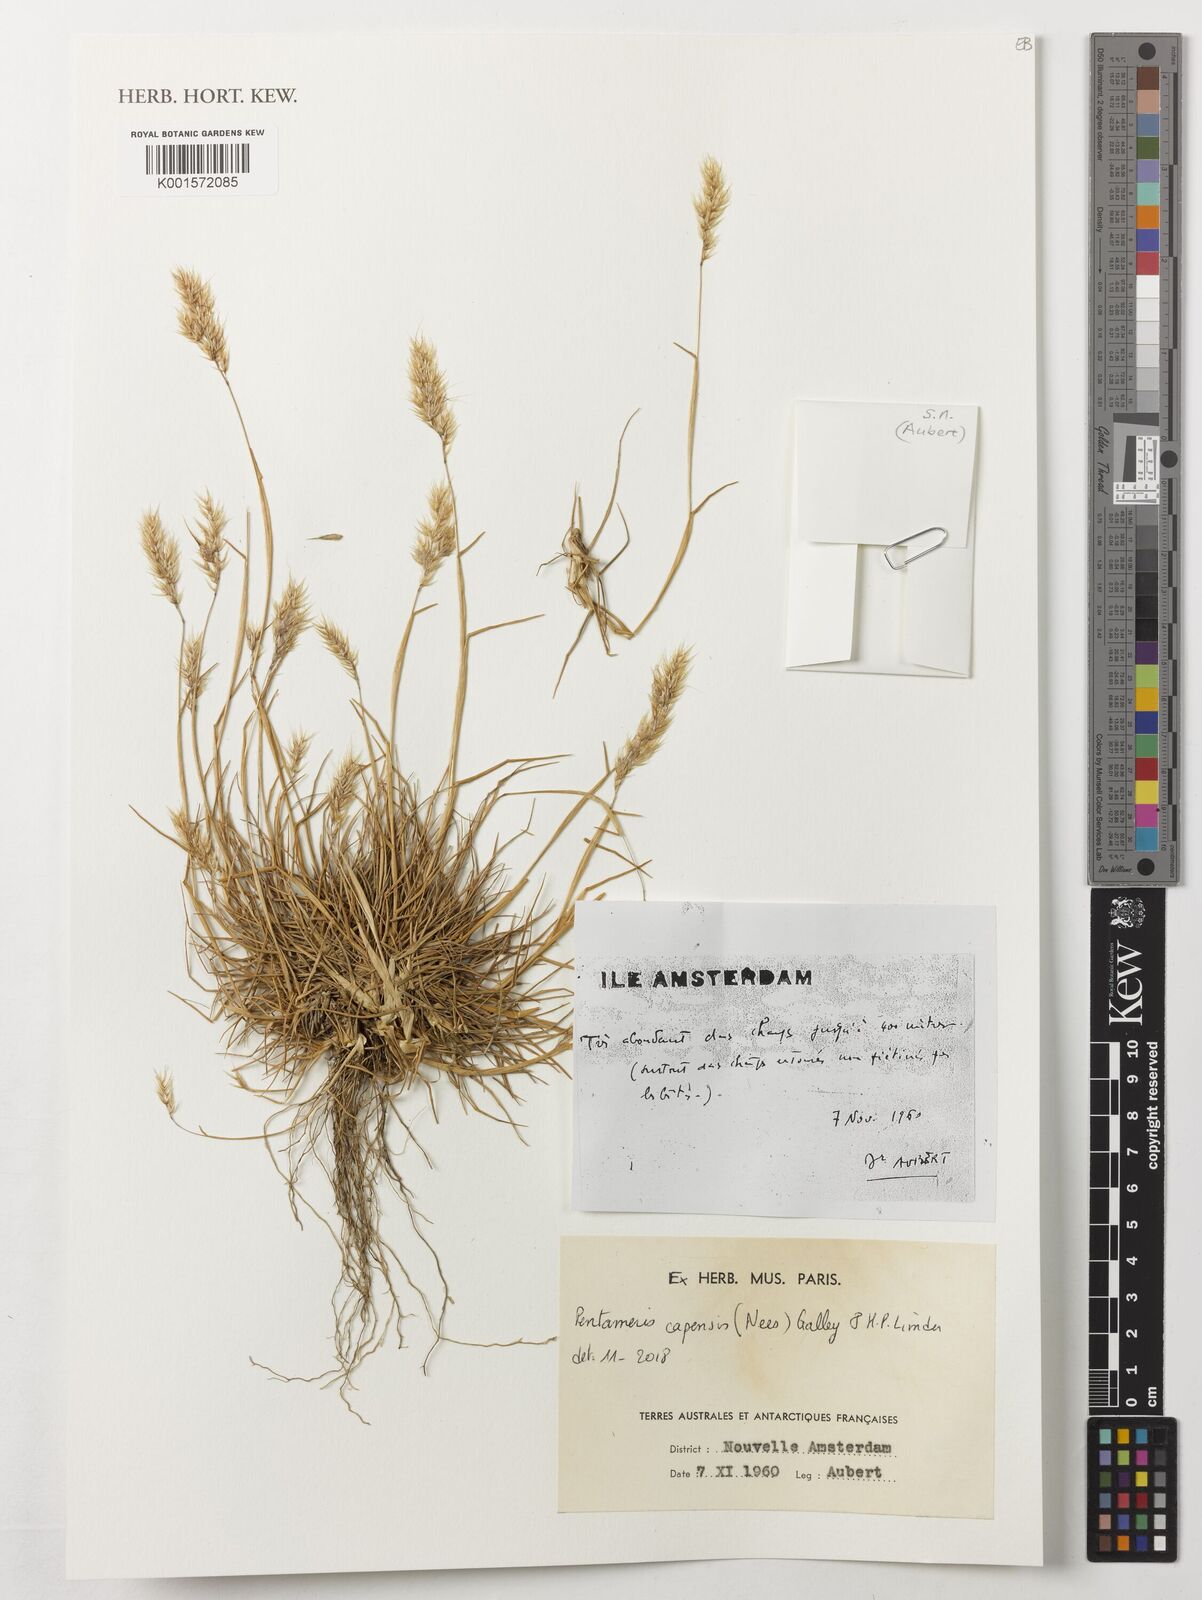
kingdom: Plantae
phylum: Tracheophyta
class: Liliopsida
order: Poales
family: Poaceae
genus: Pentameris
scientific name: Pentameris capensis
